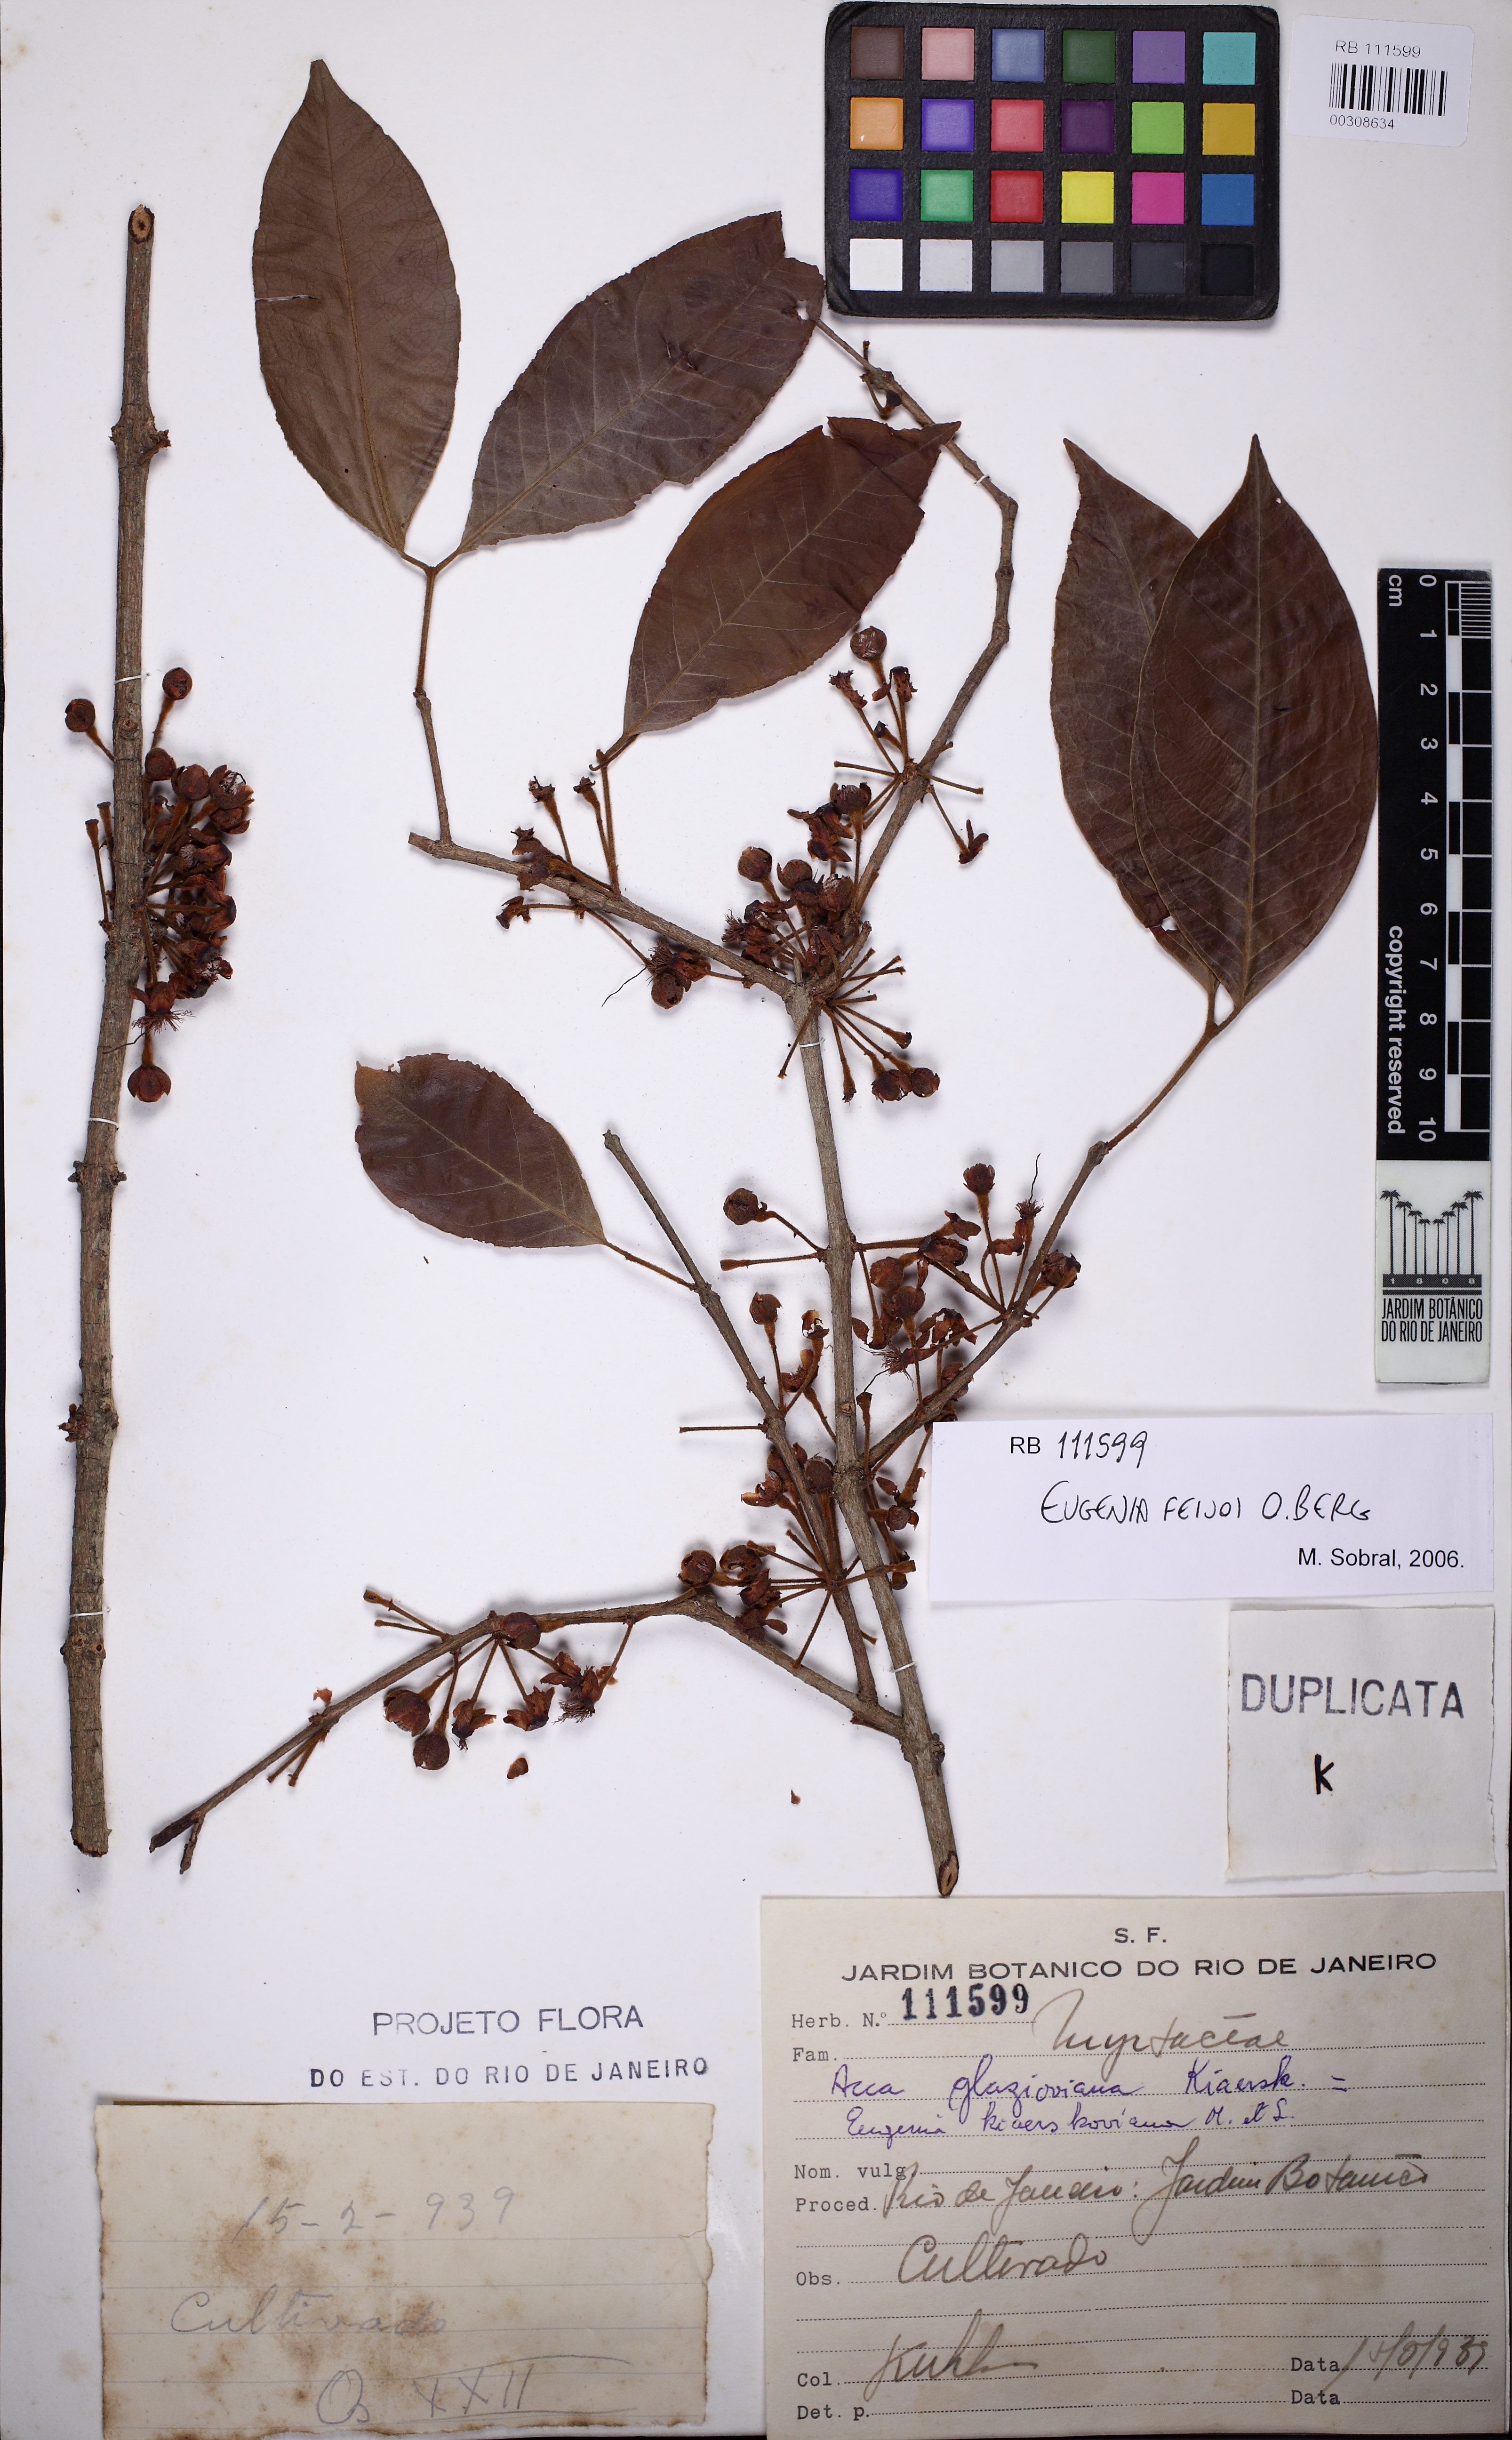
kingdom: Plantae
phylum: Tracheophyta
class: Magnoliopsida
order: Myrtales
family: Myrtaceae
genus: Eugenia
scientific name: Eugenia feijoi
